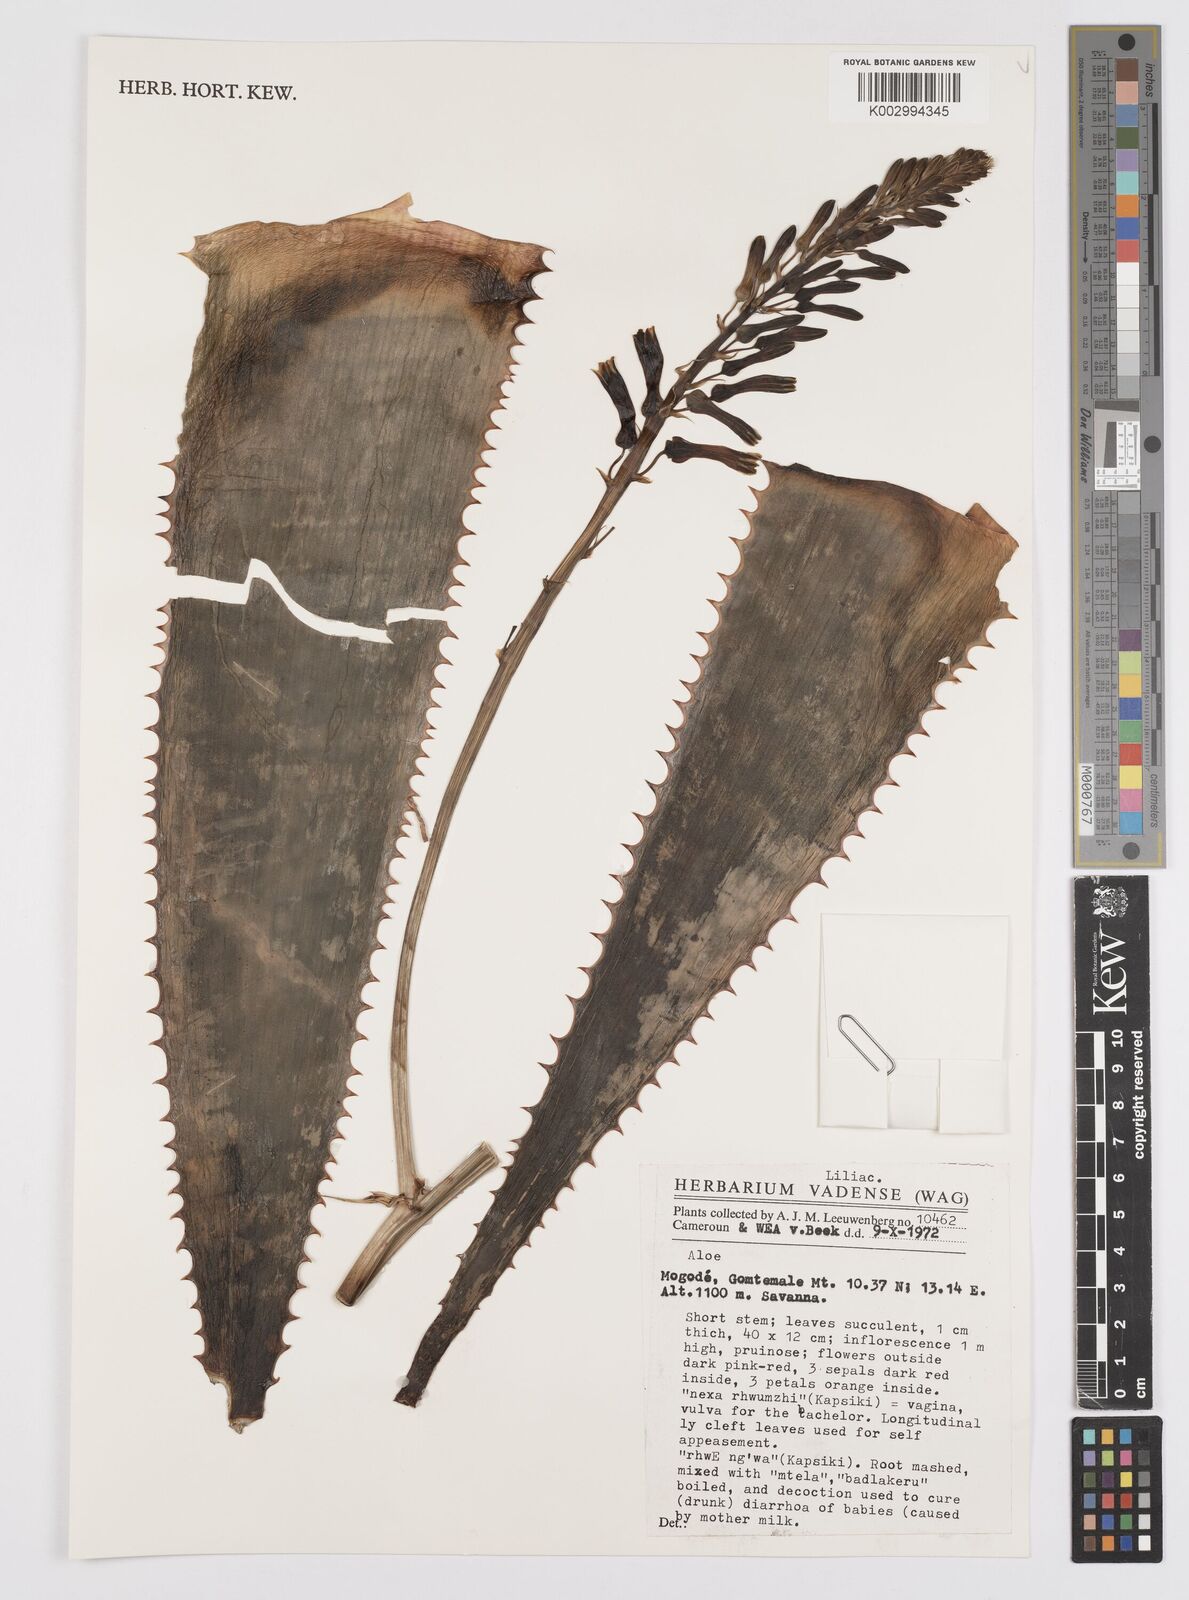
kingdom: Plantae
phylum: Tracheophyta
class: Liliopsida
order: Asparagales
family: Asphodelaceae
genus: Aloe
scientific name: Aloe
